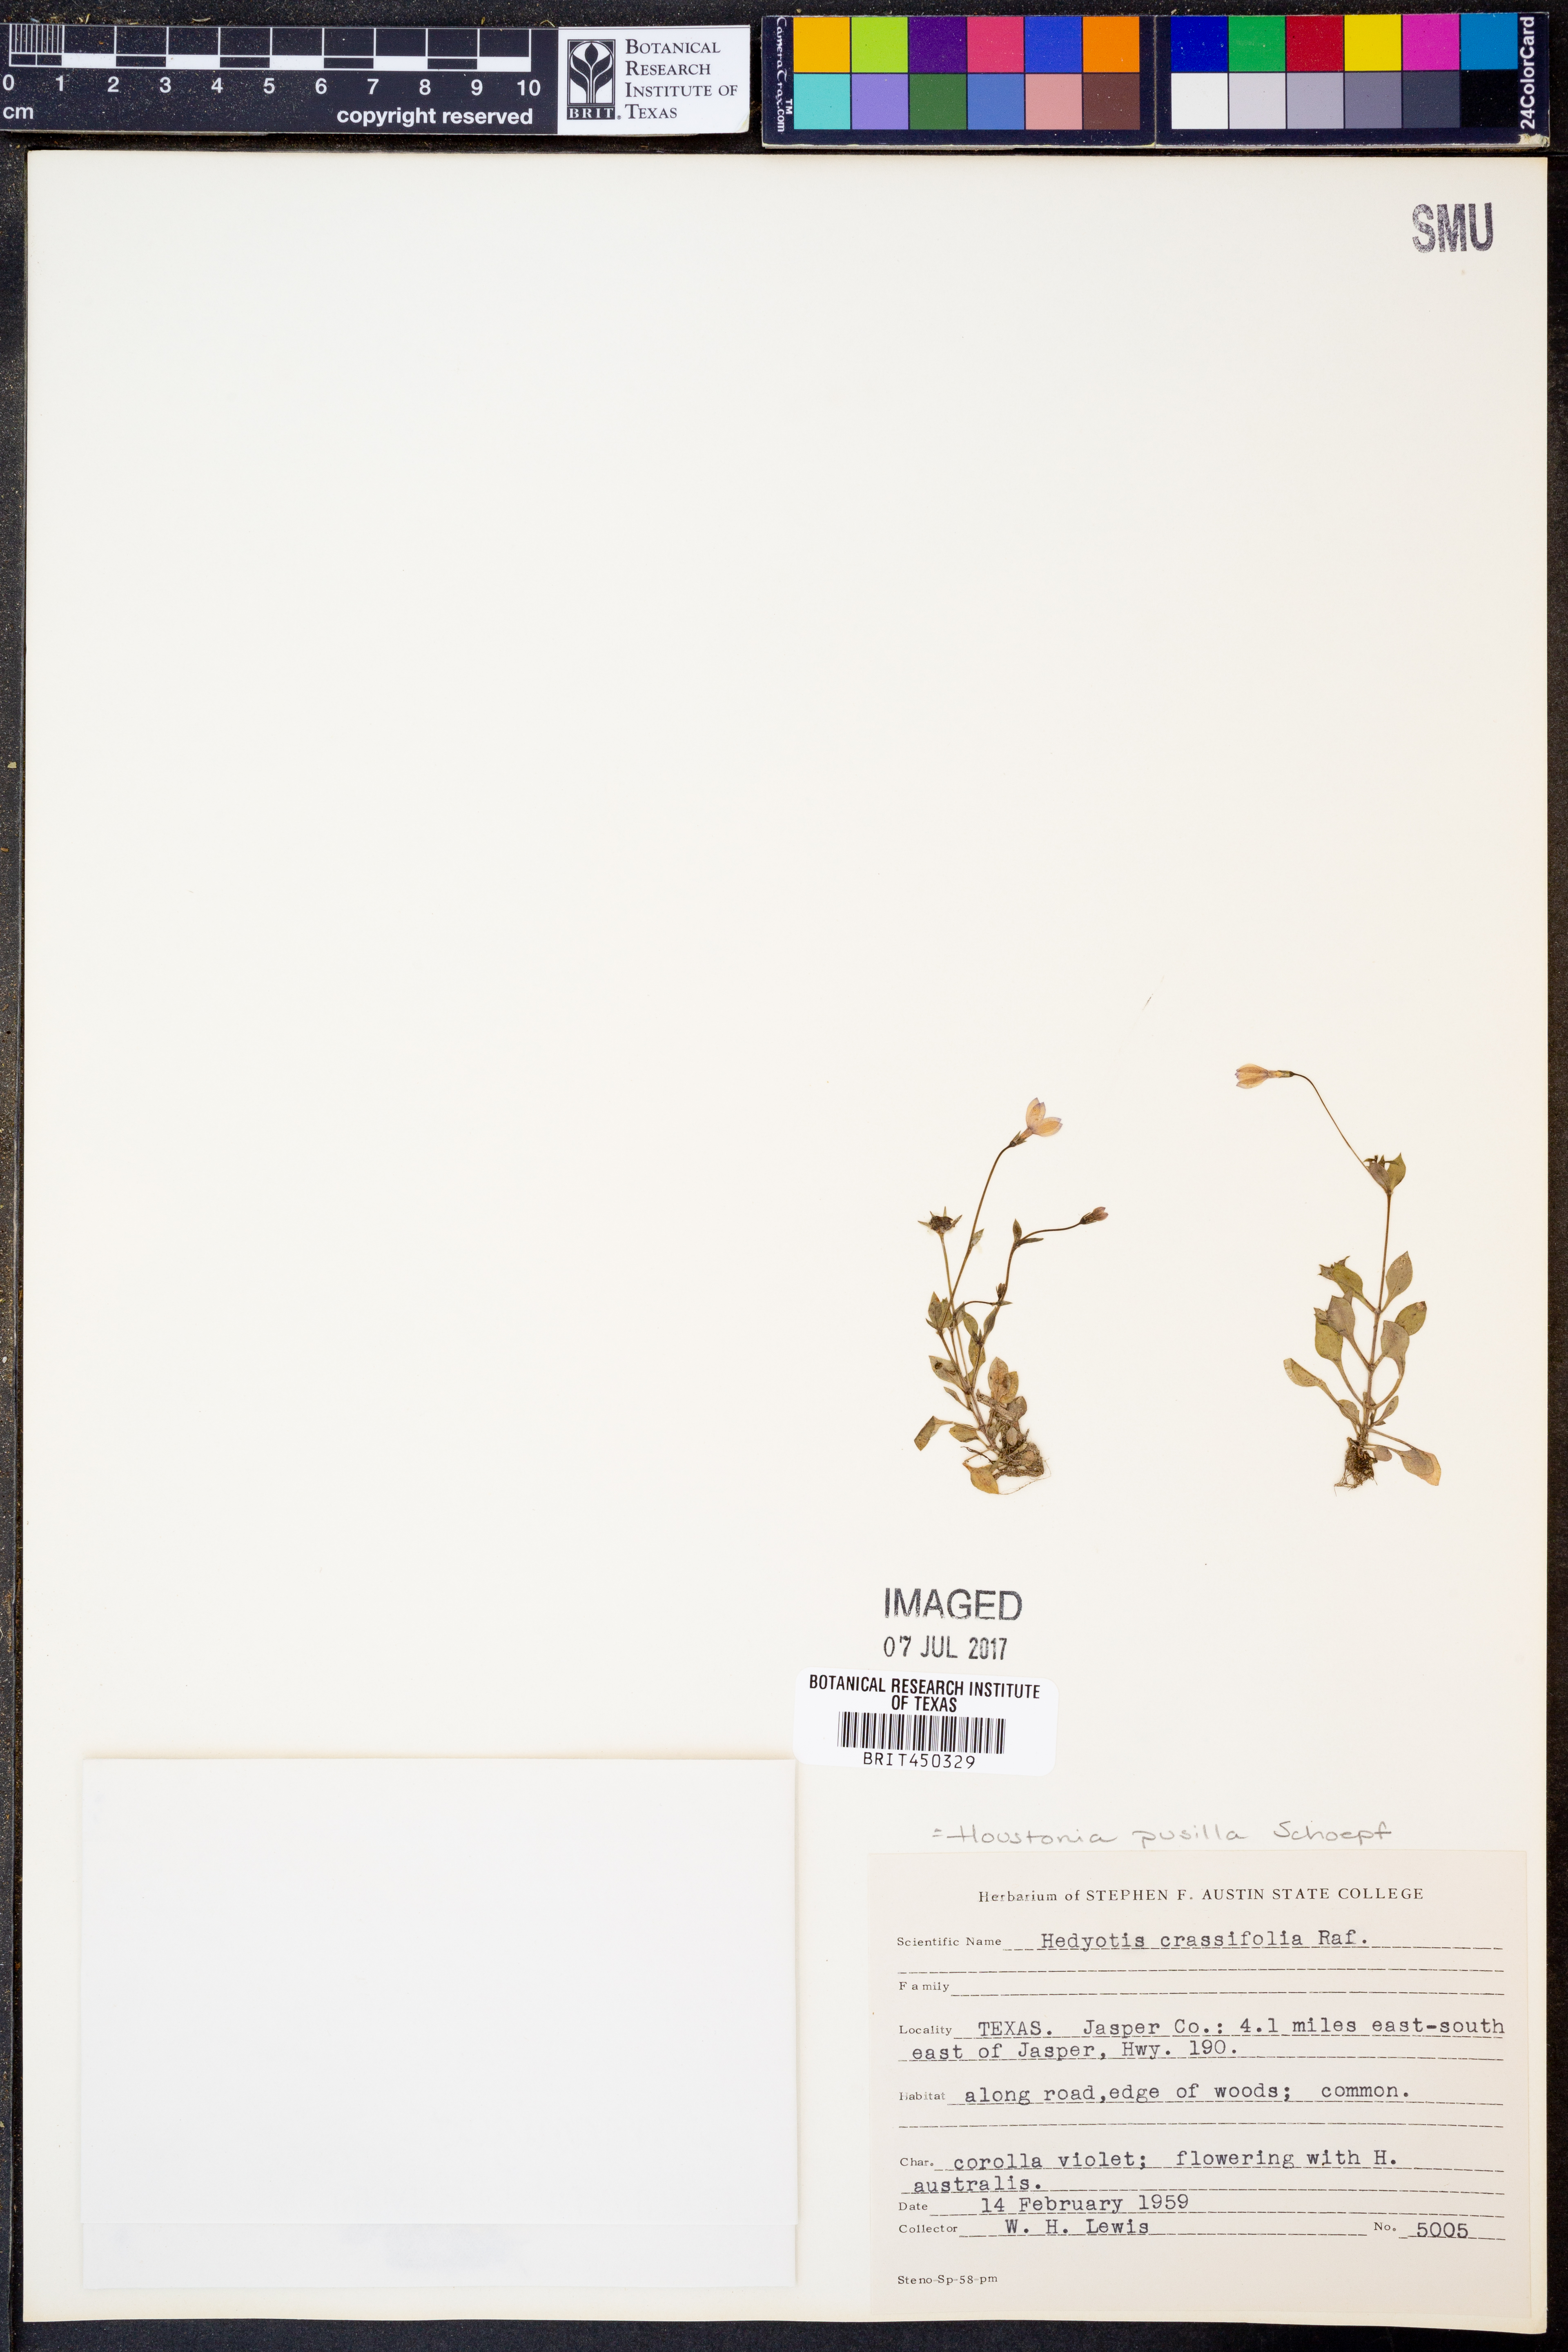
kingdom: Plantae
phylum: Tracheophyta
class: Magnoliopsida
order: Gentianales
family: Rubiaceae
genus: Houstonia
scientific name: Houstonia pusilla
